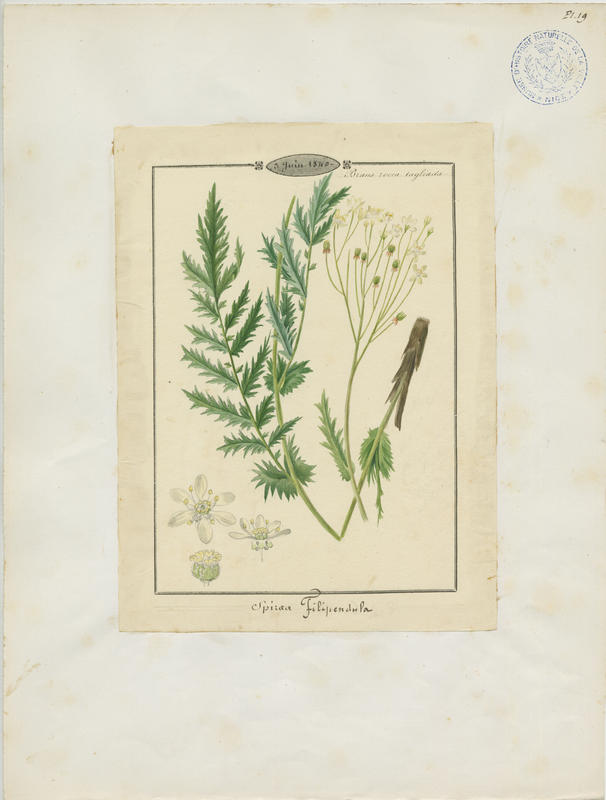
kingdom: Plantae
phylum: Tracheophyta
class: Magnoliopsida
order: Rosales
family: Rosaceae
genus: Filipendula
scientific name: Filipendula vulgaris
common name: Dropwort
